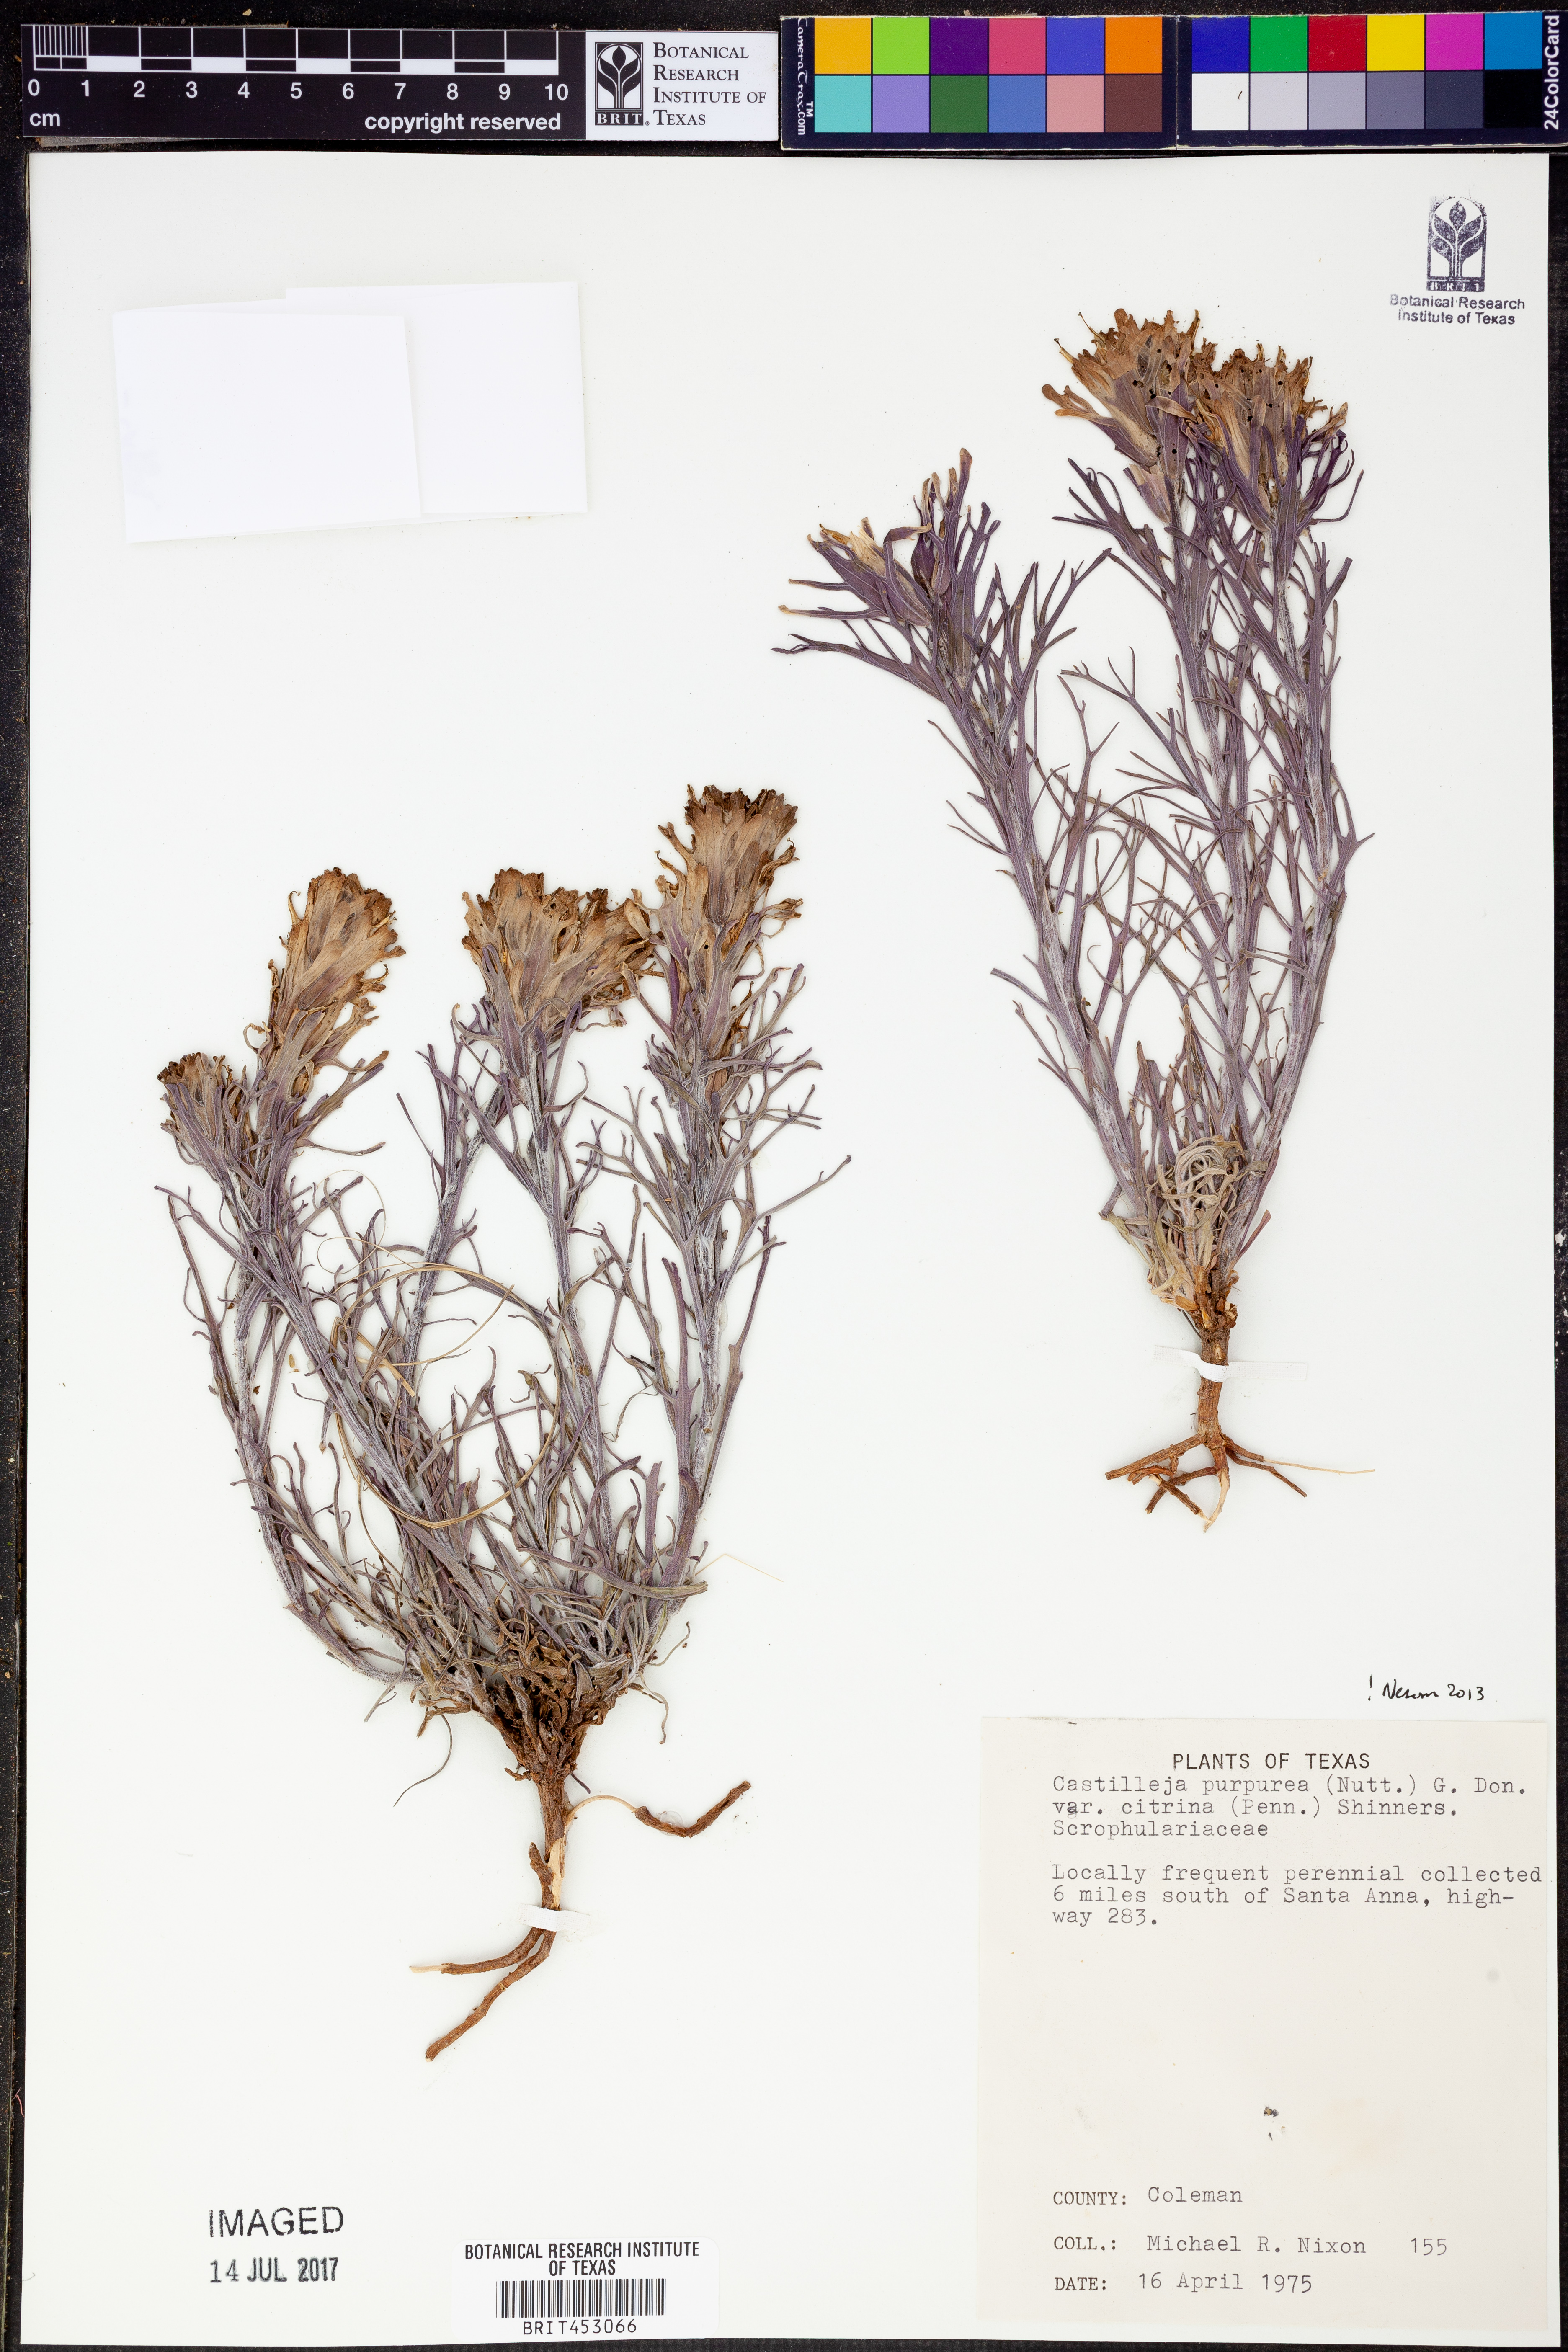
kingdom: Plantae
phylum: Tracheophyta
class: Magnoliopsida
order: Lamiales
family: Orobanchaceae
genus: Castilleja
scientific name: Castilleja citrina
